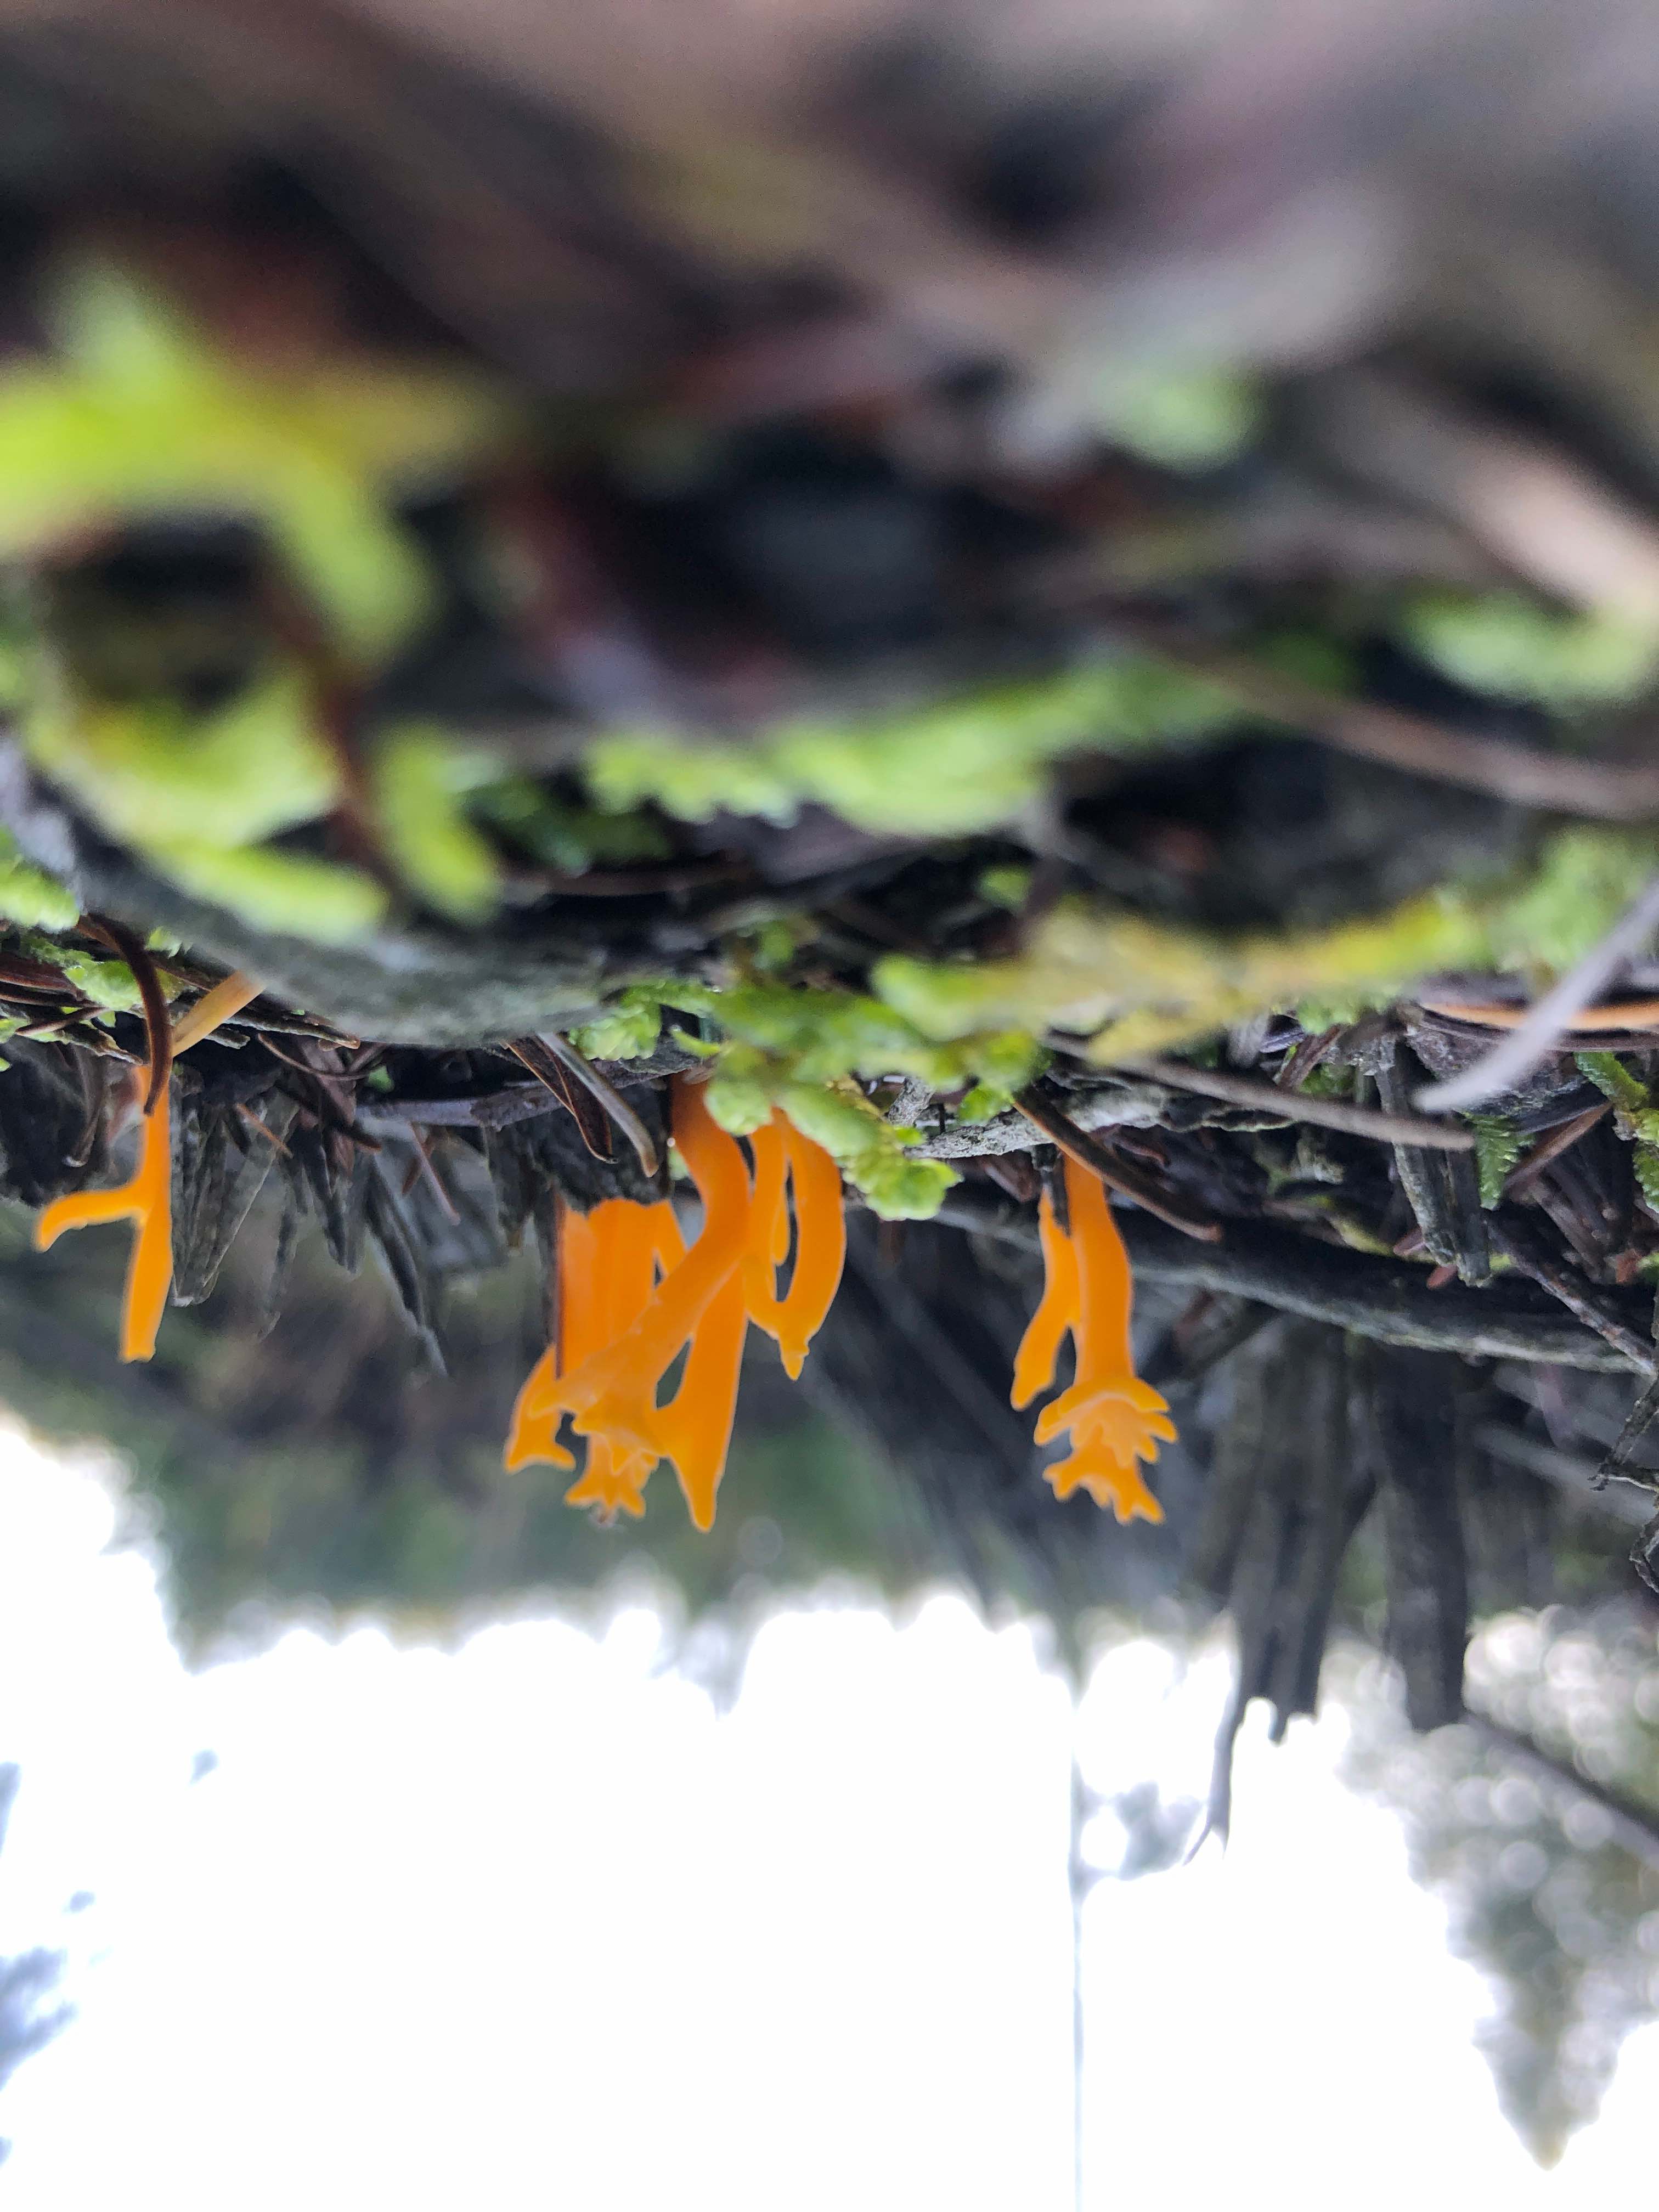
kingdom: Fungi
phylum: Basidiomycota
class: Dacrymycetes
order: Dacrymycetales
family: Dacrymycetaceae
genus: Calocera
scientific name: Calocera viscosa
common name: almindelig guldgaffel
